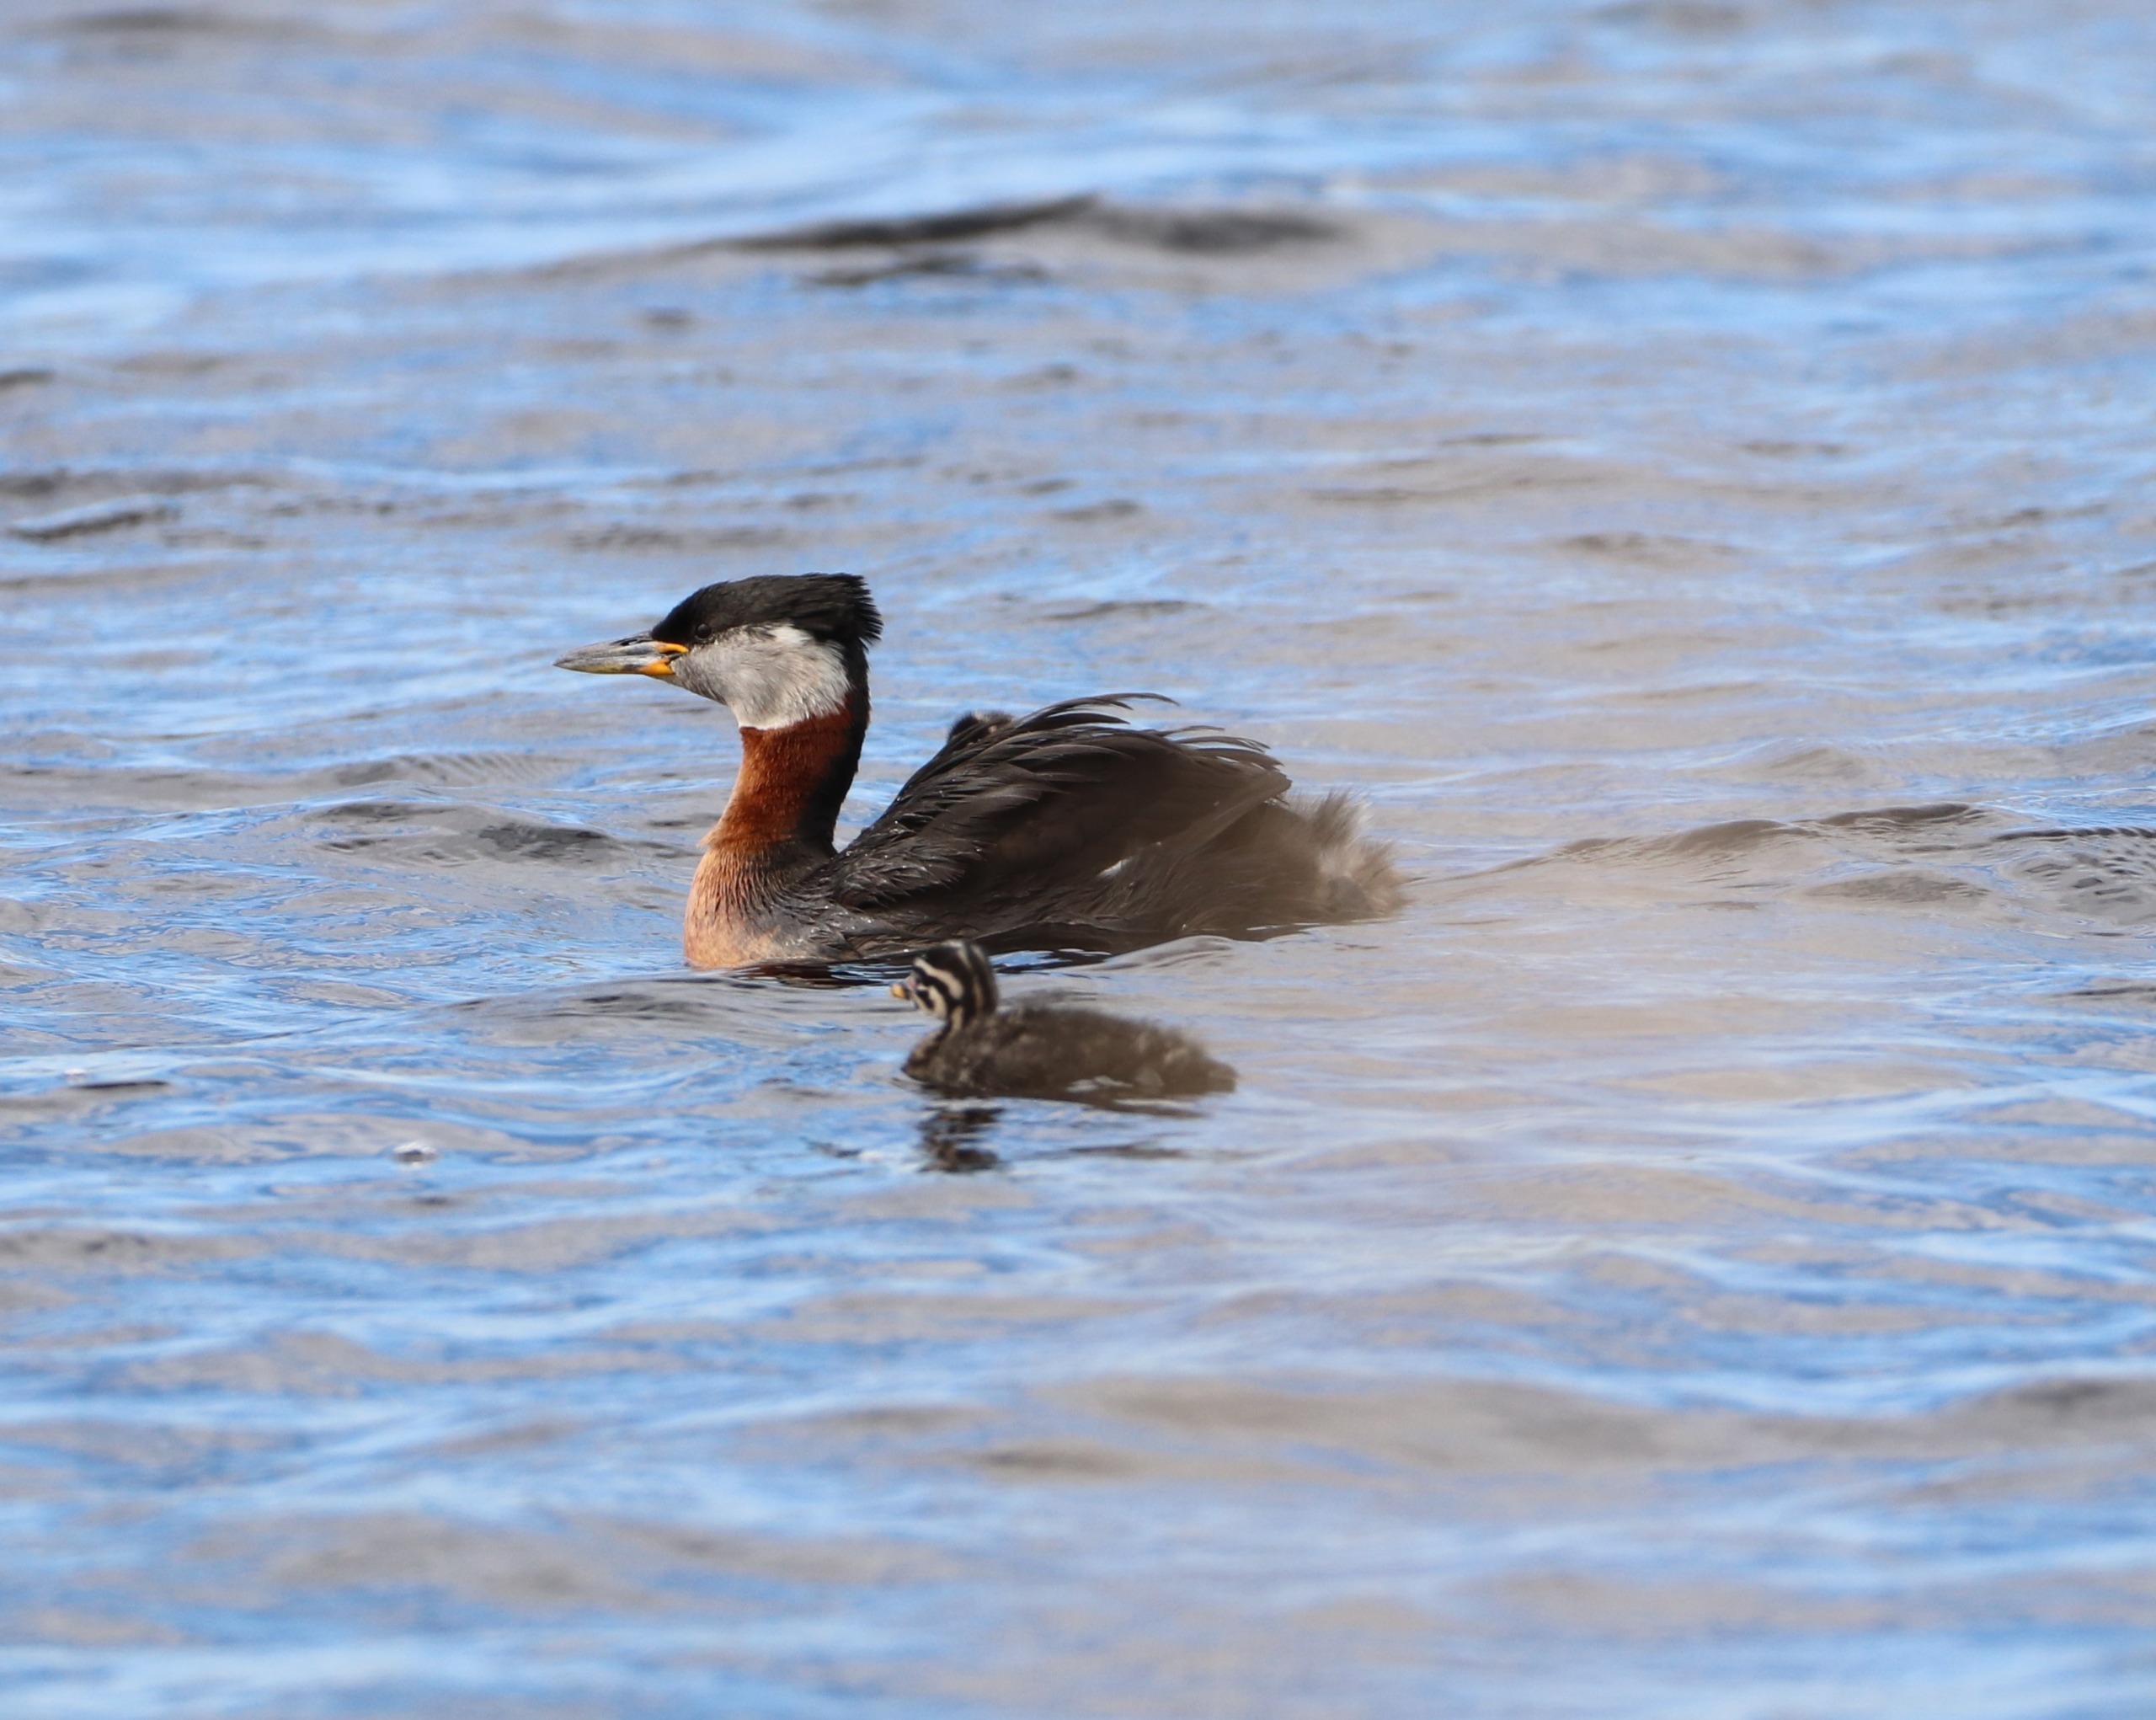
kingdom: Animalia
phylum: Chordata
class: Aves
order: Podicipediformes
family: Podicipedidae
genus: Podiceps
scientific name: Podiceps grisegena
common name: Gråstrubet lappedykker
